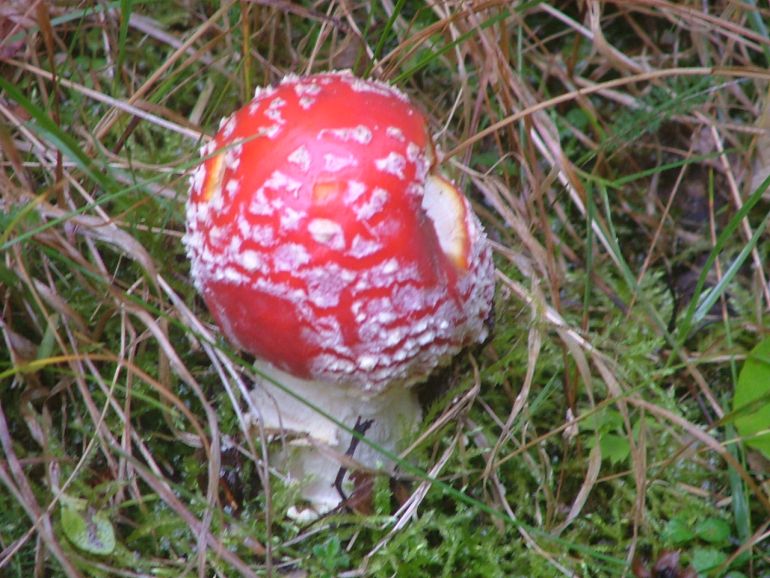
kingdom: Fungi
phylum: Basidiomycota
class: Agaricomycetes
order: Agaricales
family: Amanitaceae
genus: Amanita
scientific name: Amanita muscaria
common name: rød fluesvamp
